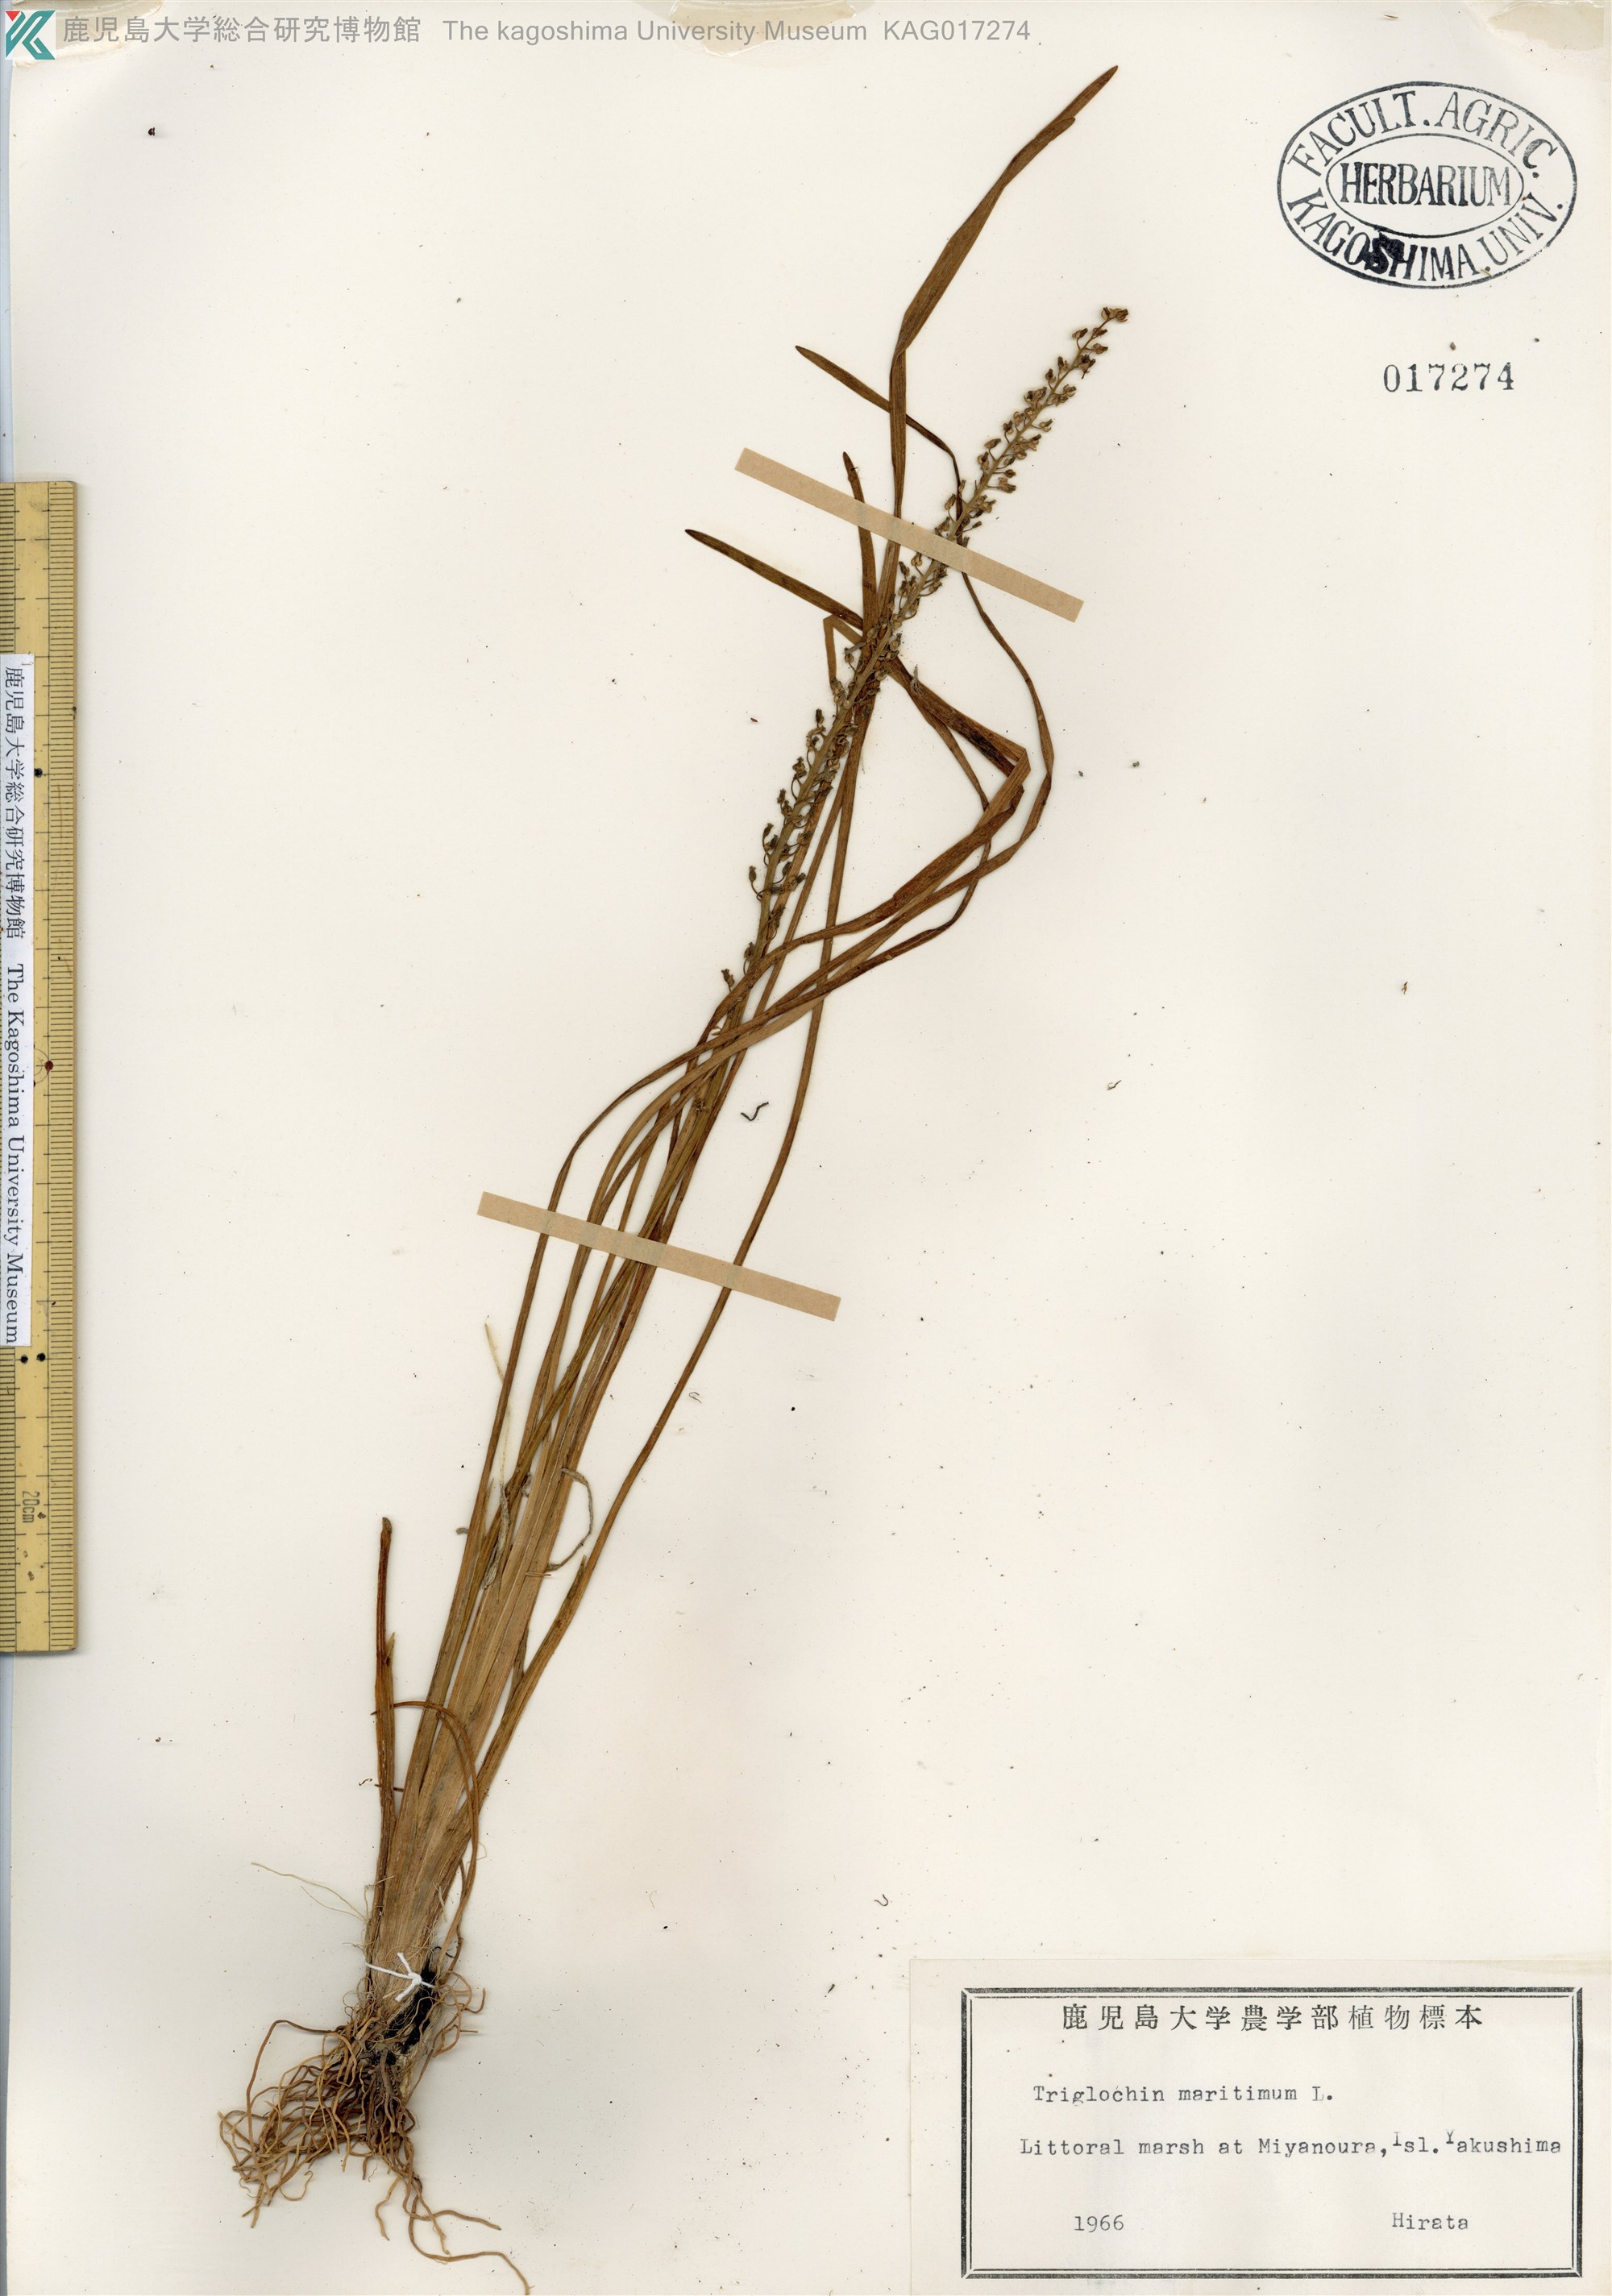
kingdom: Plantae
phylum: Tracheophyta
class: Liliopsida
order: Alismatales
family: Juncaginaceae
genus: Triglochin
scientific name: Triglochin maritima
